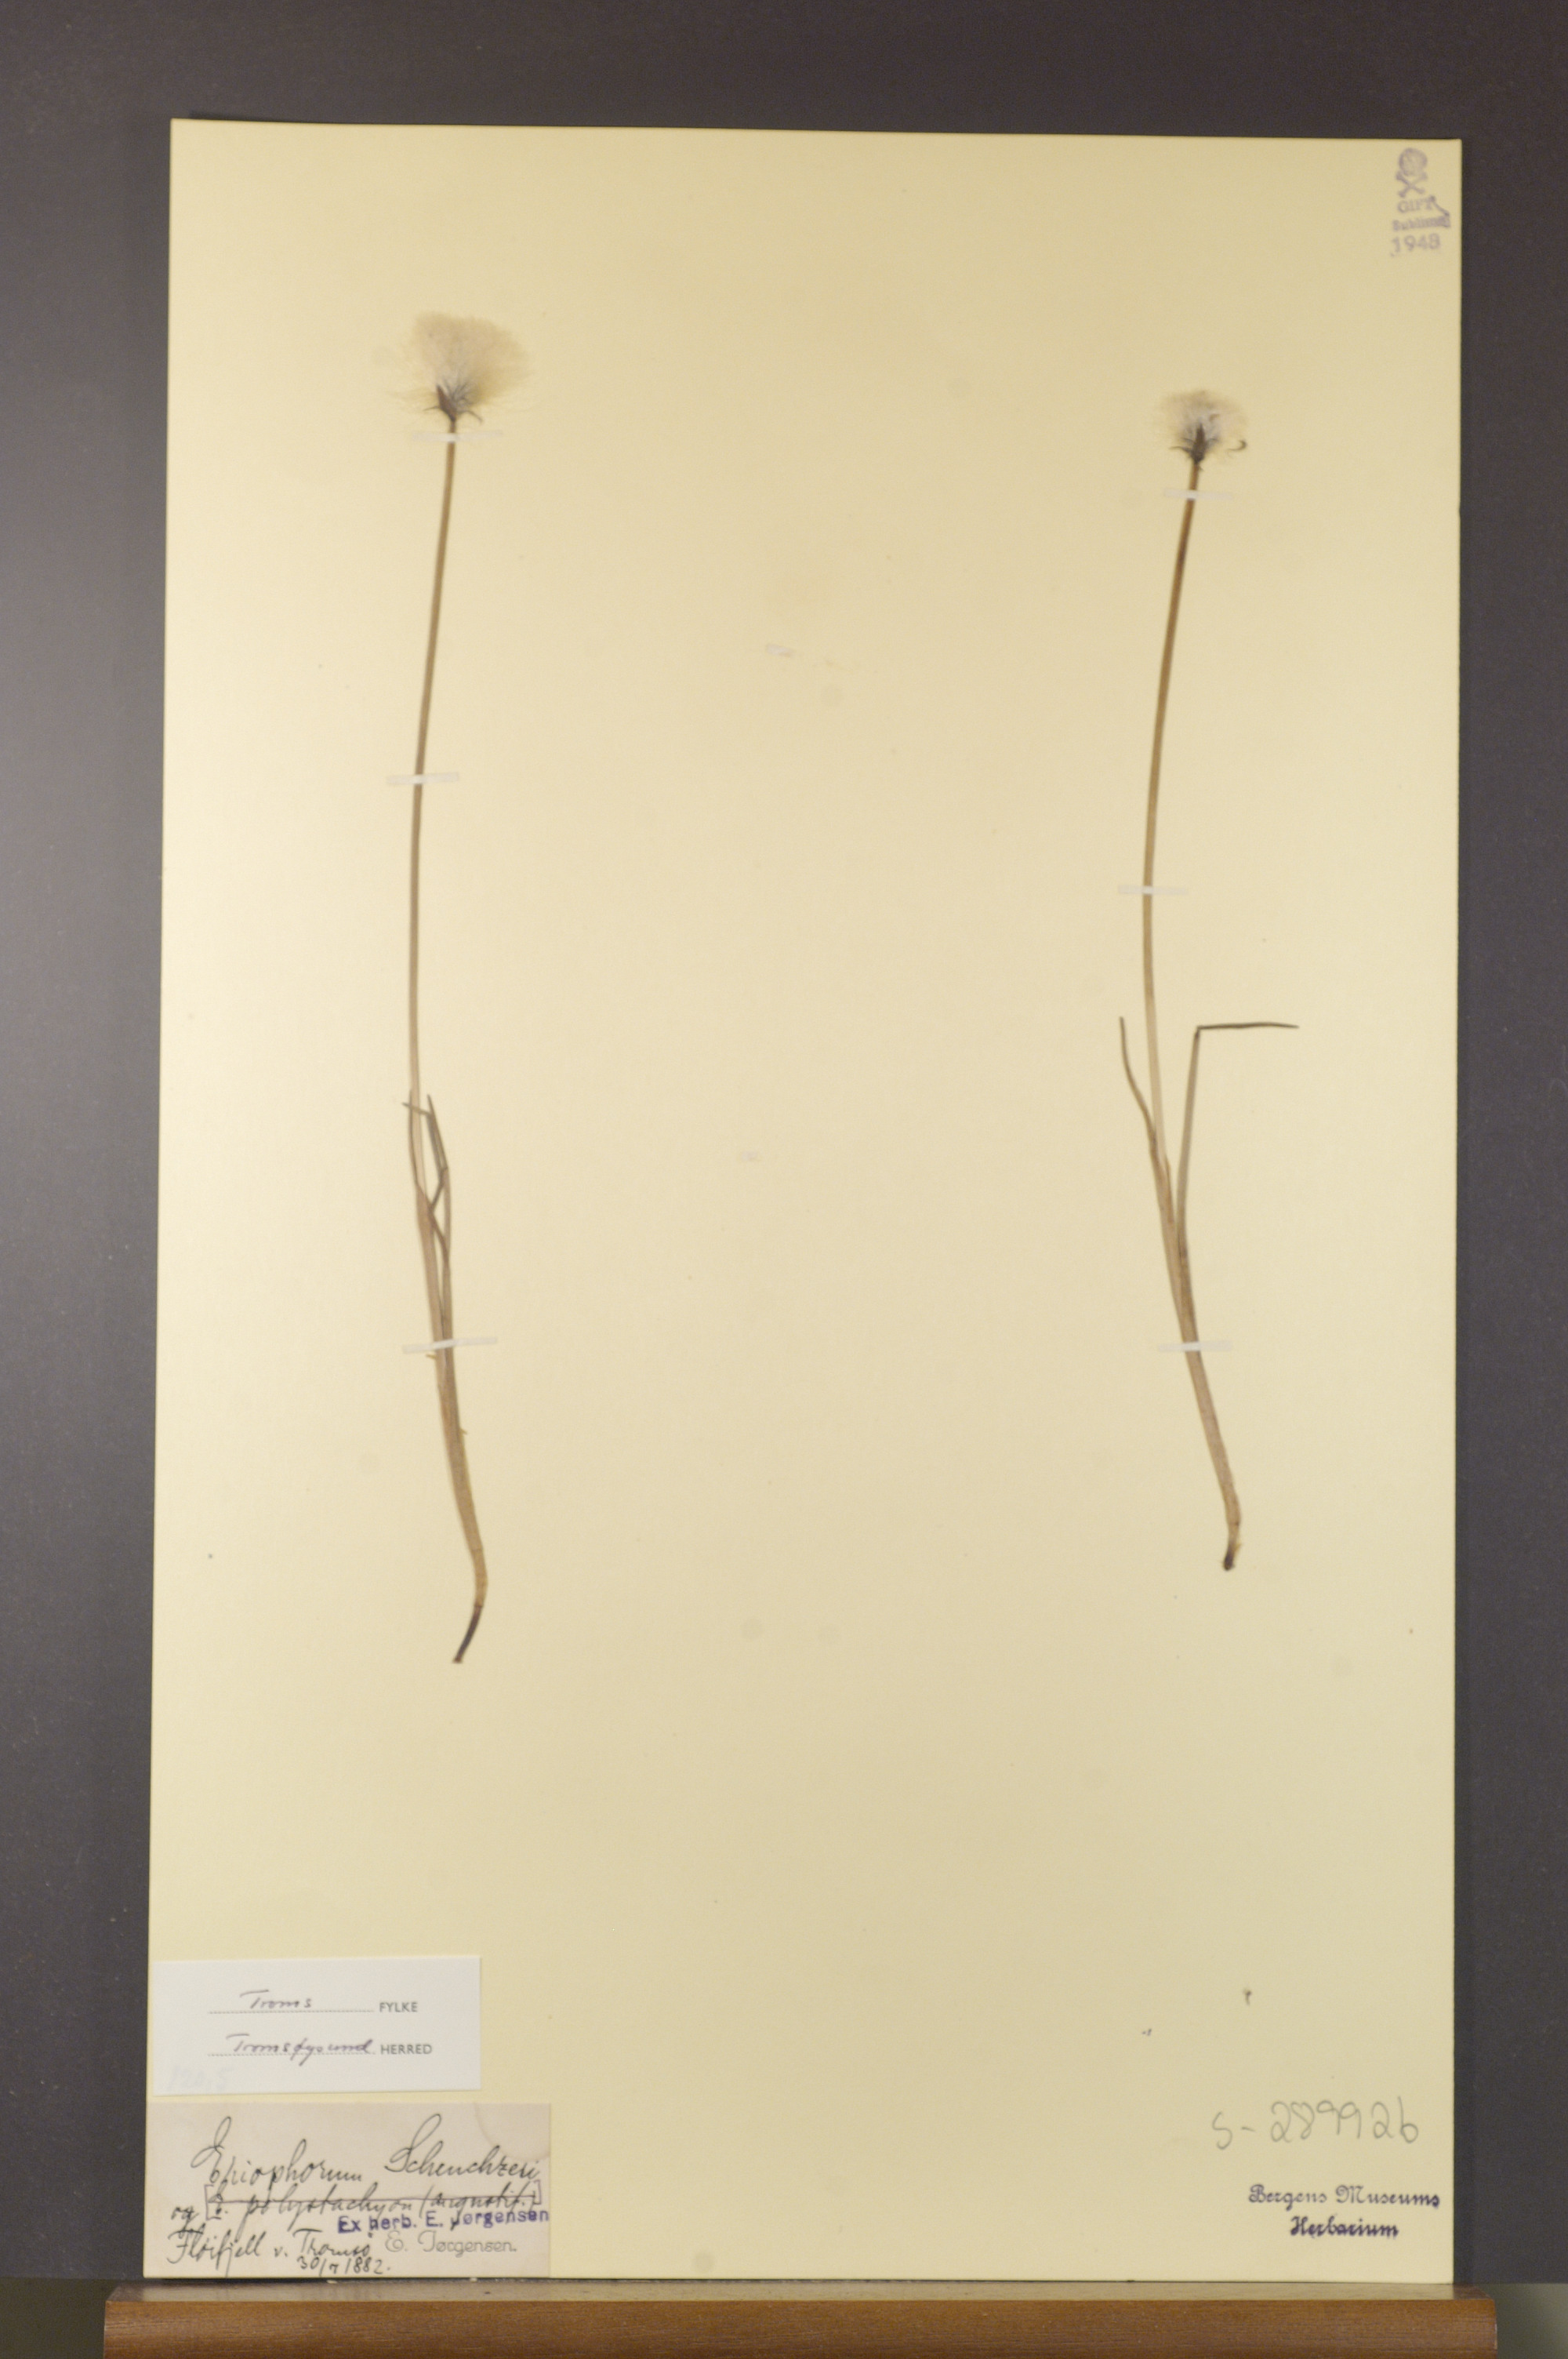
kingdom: Plantae
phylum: Tracheophyta
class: Liliopsida
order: Poales
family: Cyperaceae
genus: Eriophorum
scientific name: Eriophorum scheuchzeri
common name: Scheuchzer's cottongrass
